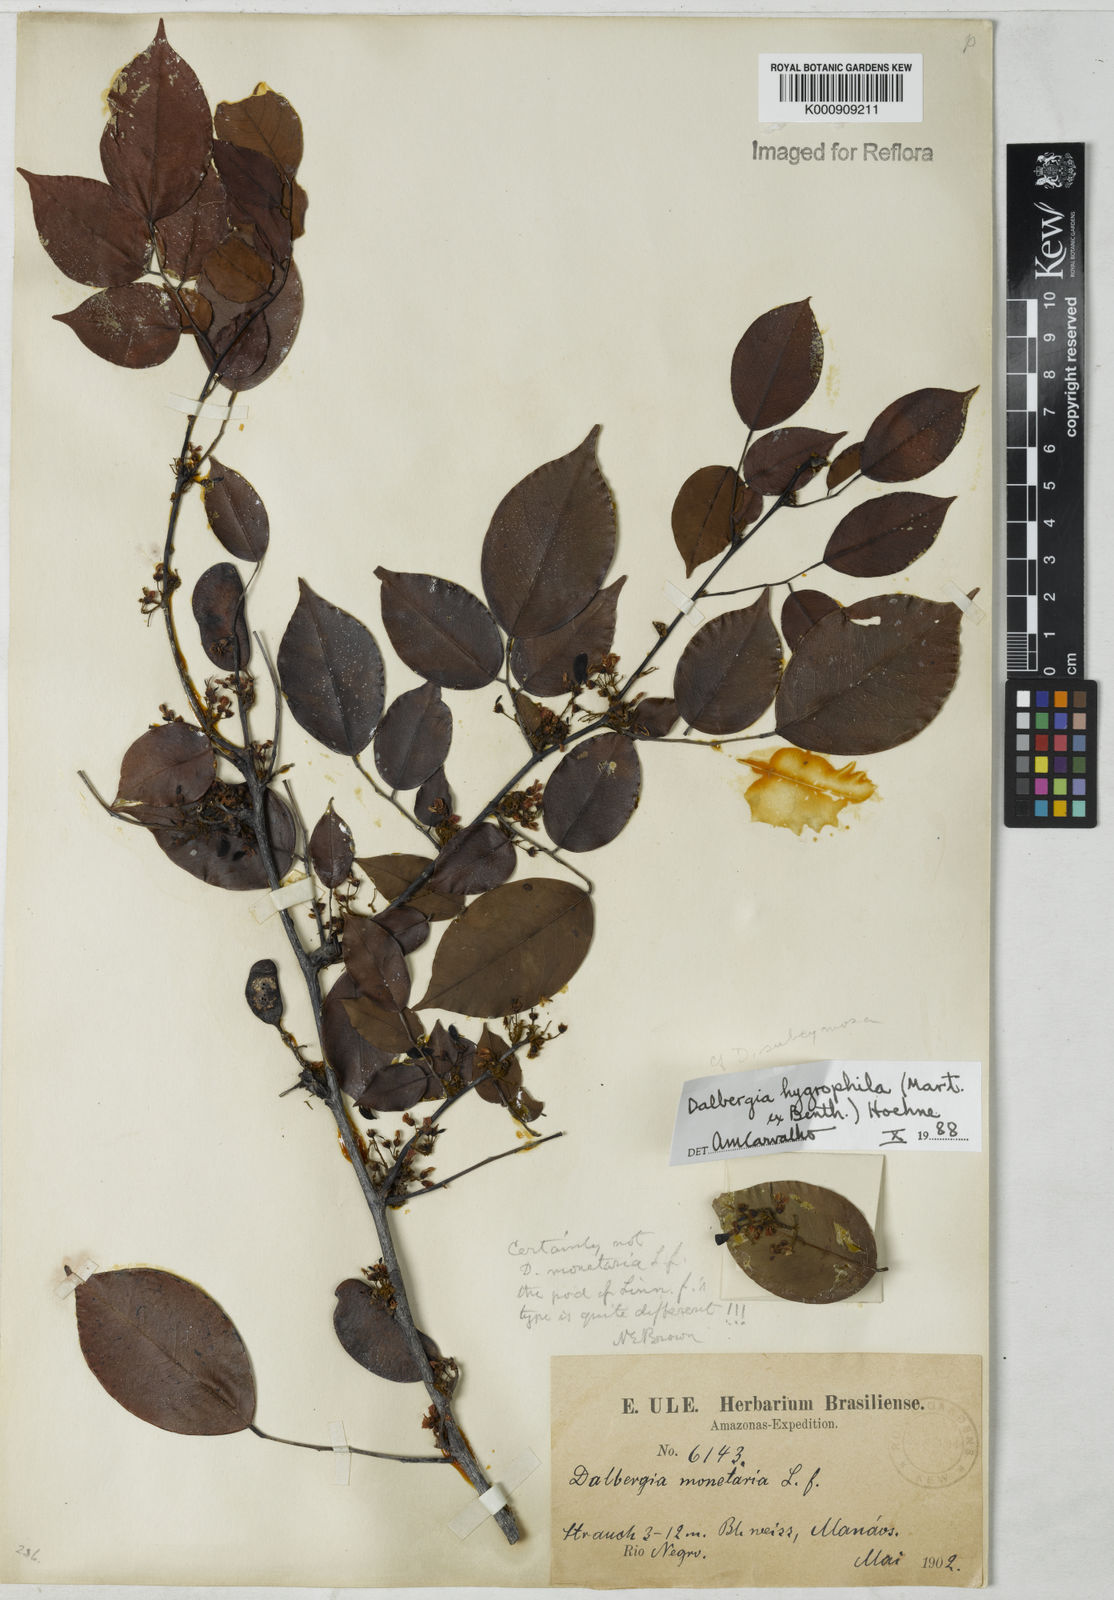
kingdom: Plantae
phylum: Tracheophyta
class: Magnoliopsida
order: Fabales
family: Fabaceae
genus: Dalbergia
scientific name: Dalbergia hygrophila
